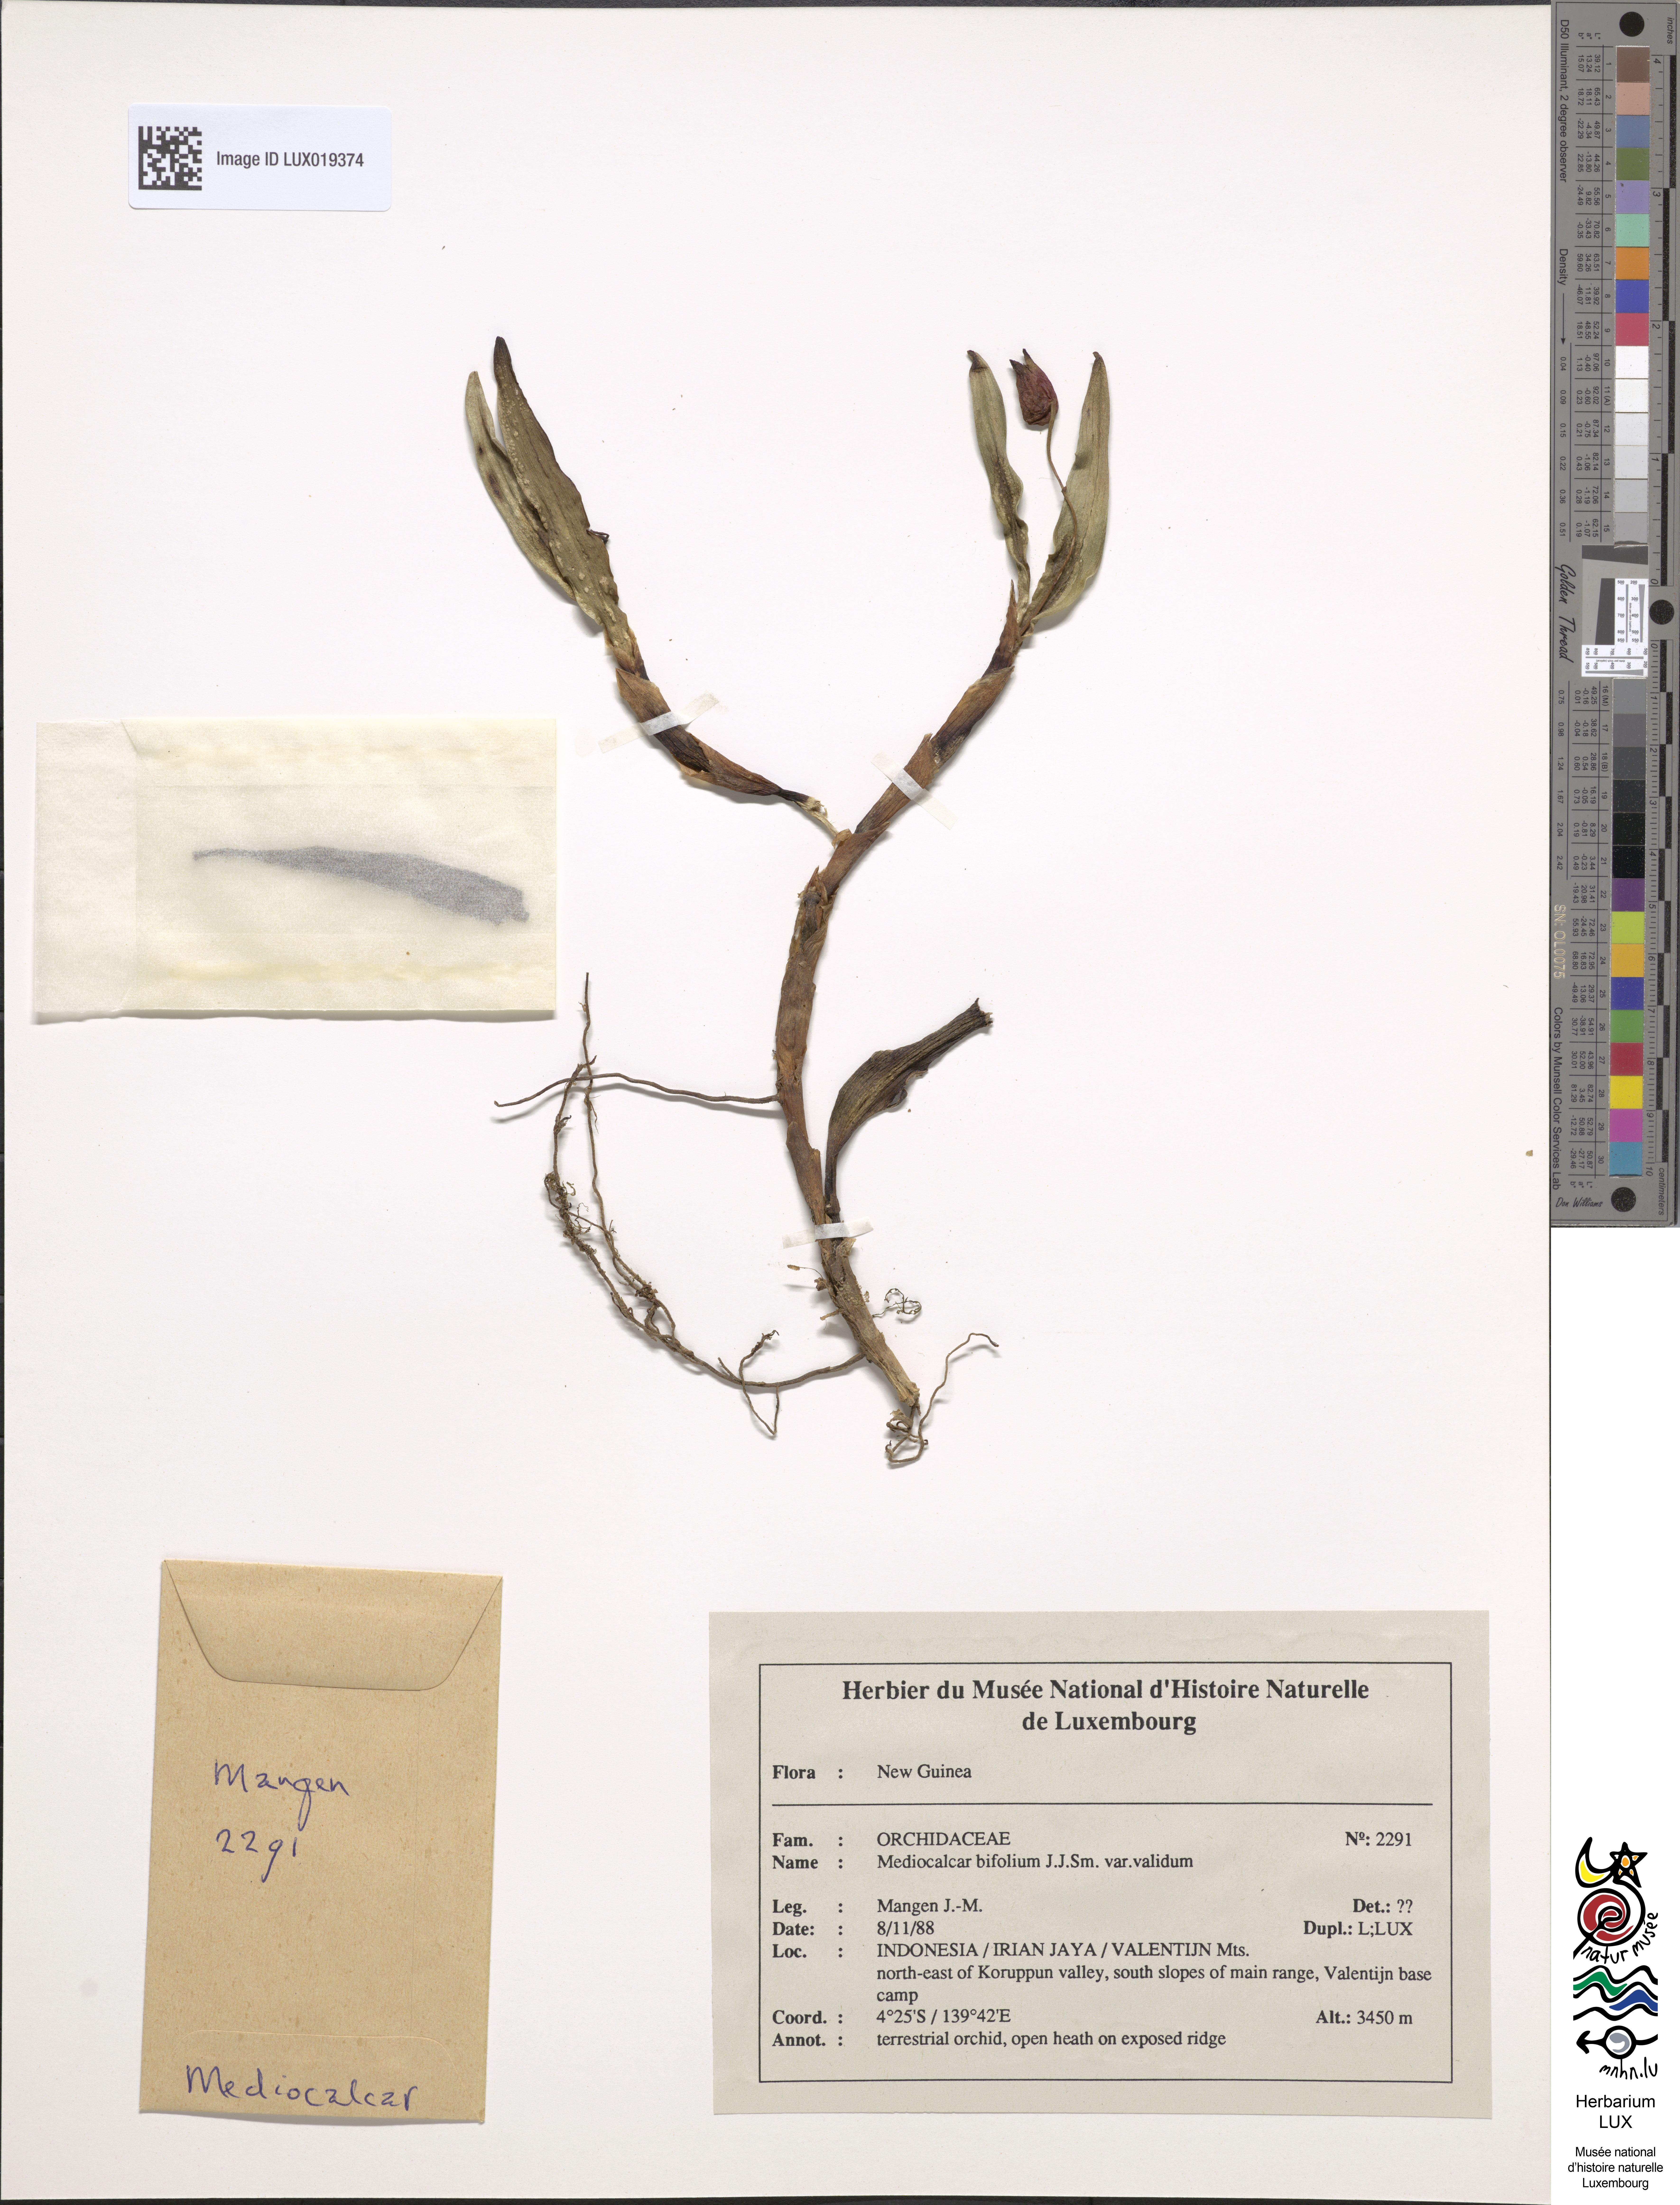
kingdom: Plantae
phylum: Tracheophyta
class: Liliopsida
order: Asparagales
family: Orchidaceae
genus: Mediocalcar
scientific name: Mediocalcar agathodaemonis
